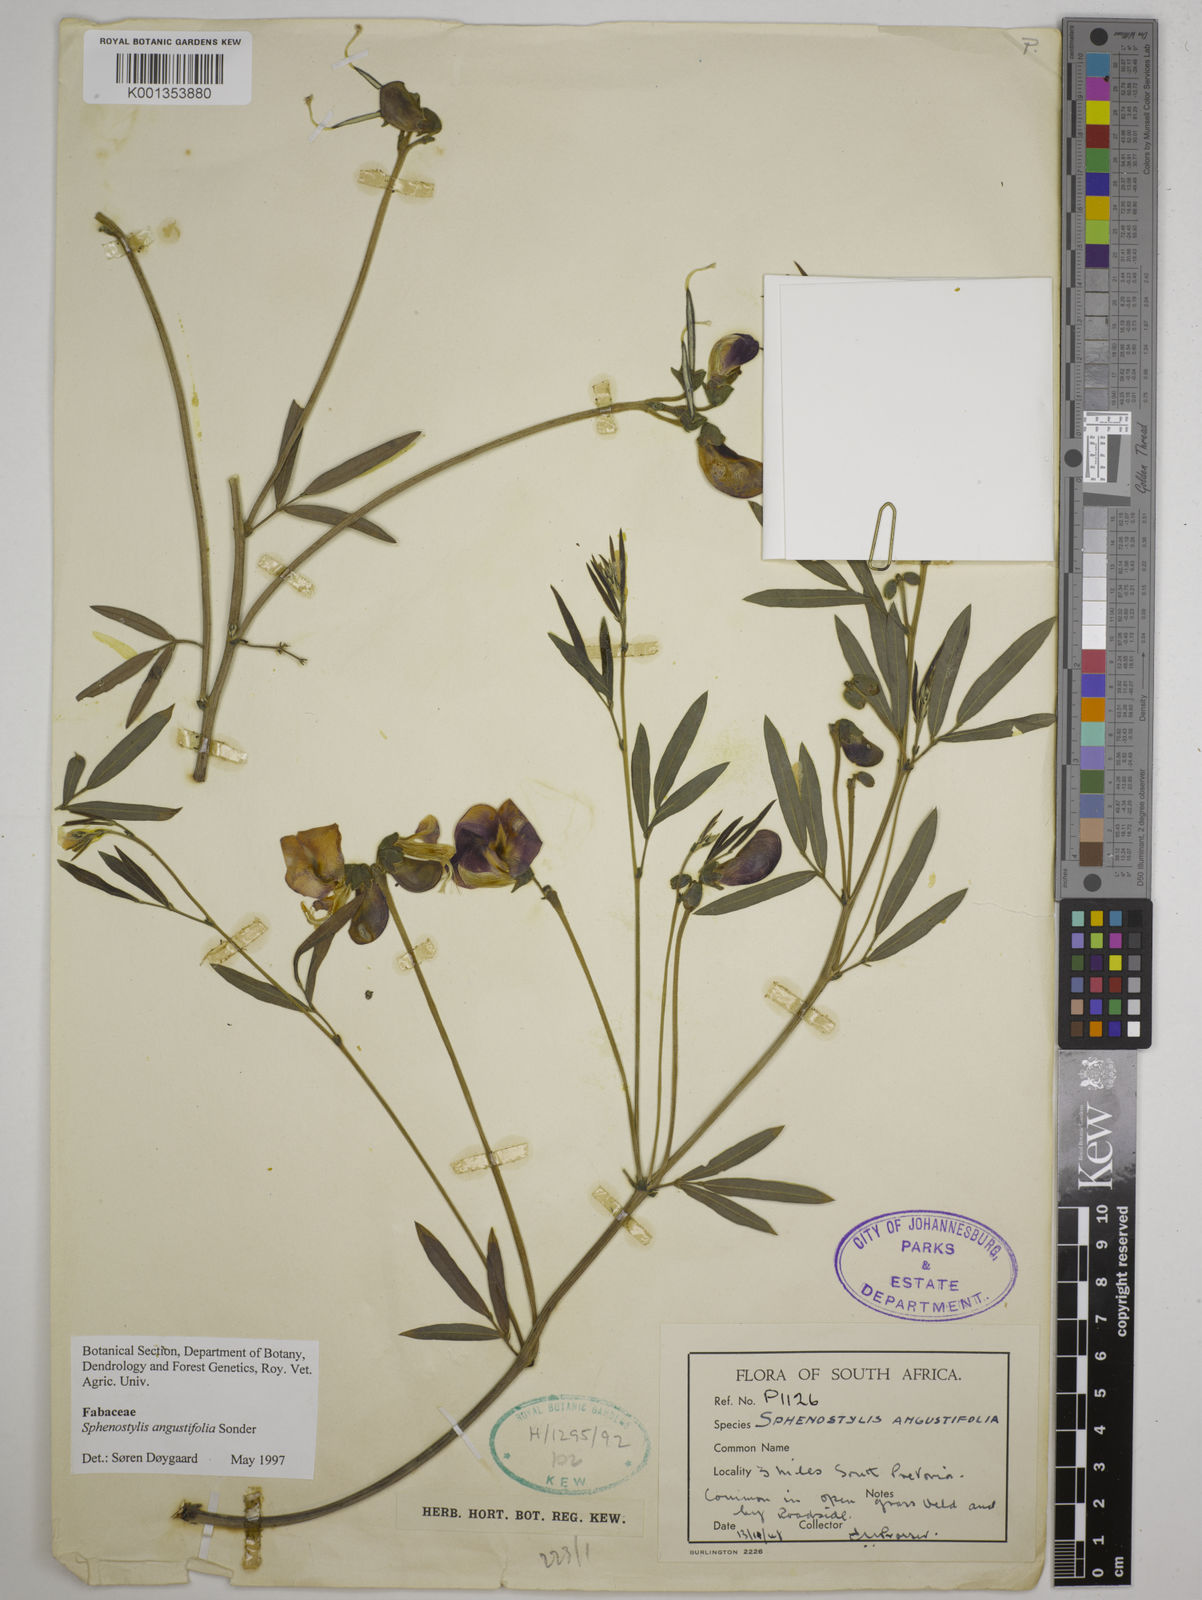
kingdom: Plantae
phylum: Tracheophyta
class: Magnoliopsida
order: Fabales
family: Fabaceae
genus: Sphenostylis
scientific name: Sphenostylis angustifolia
